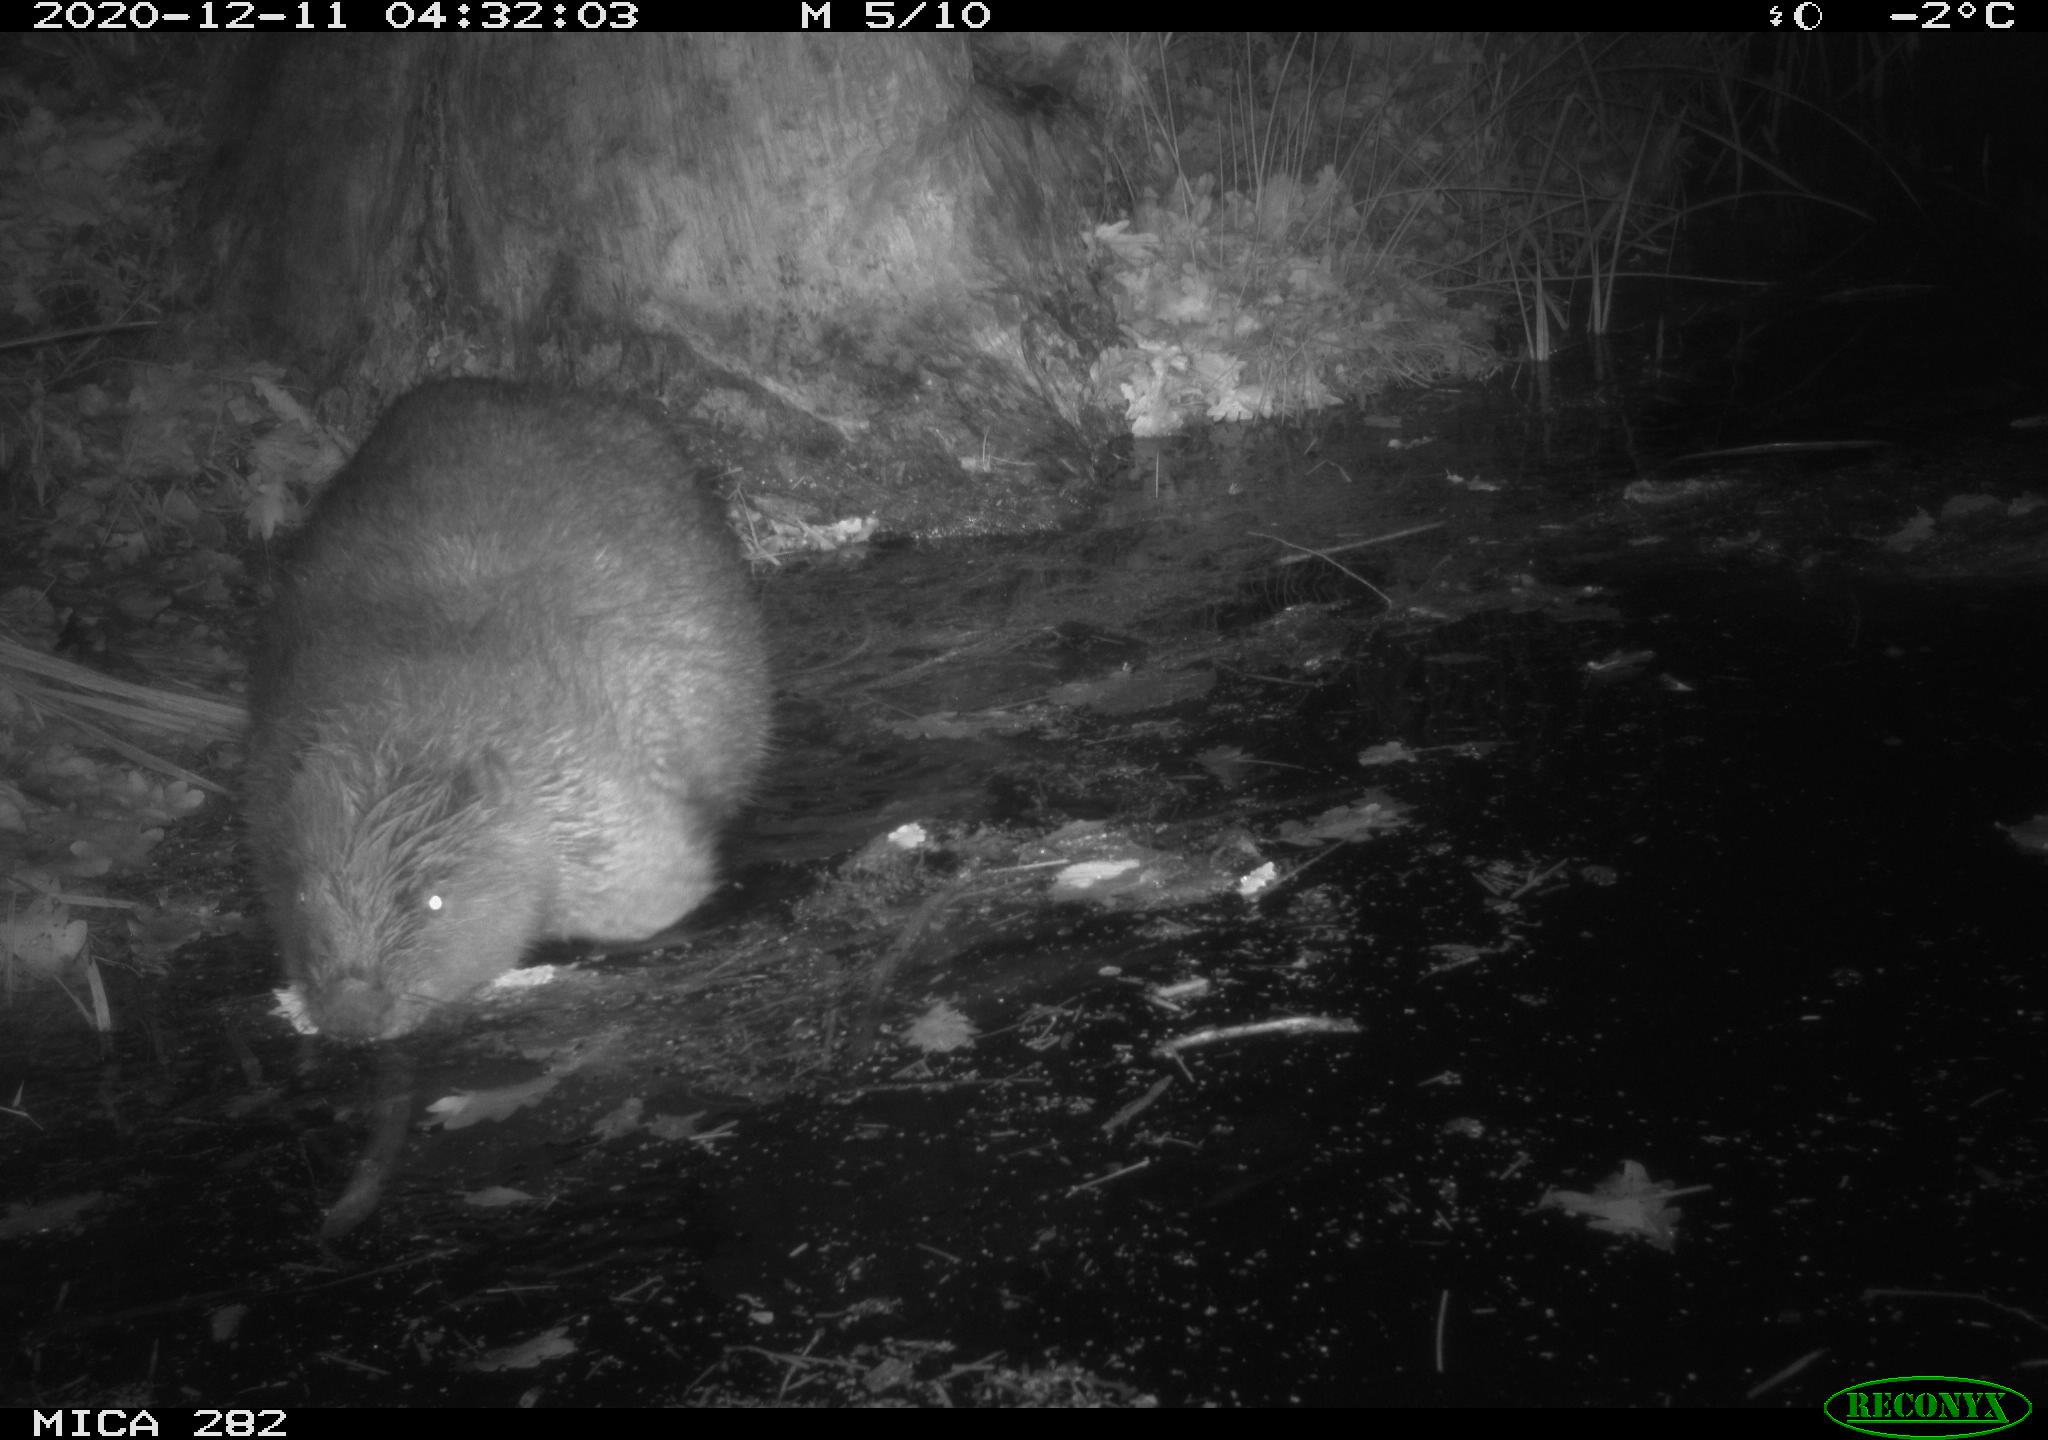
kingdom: Animalia
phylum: Chordata
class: Mammalia
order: Rodentia
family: Castoridae
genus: Castor
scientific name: Castor fiber
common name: Eurasian beaver
